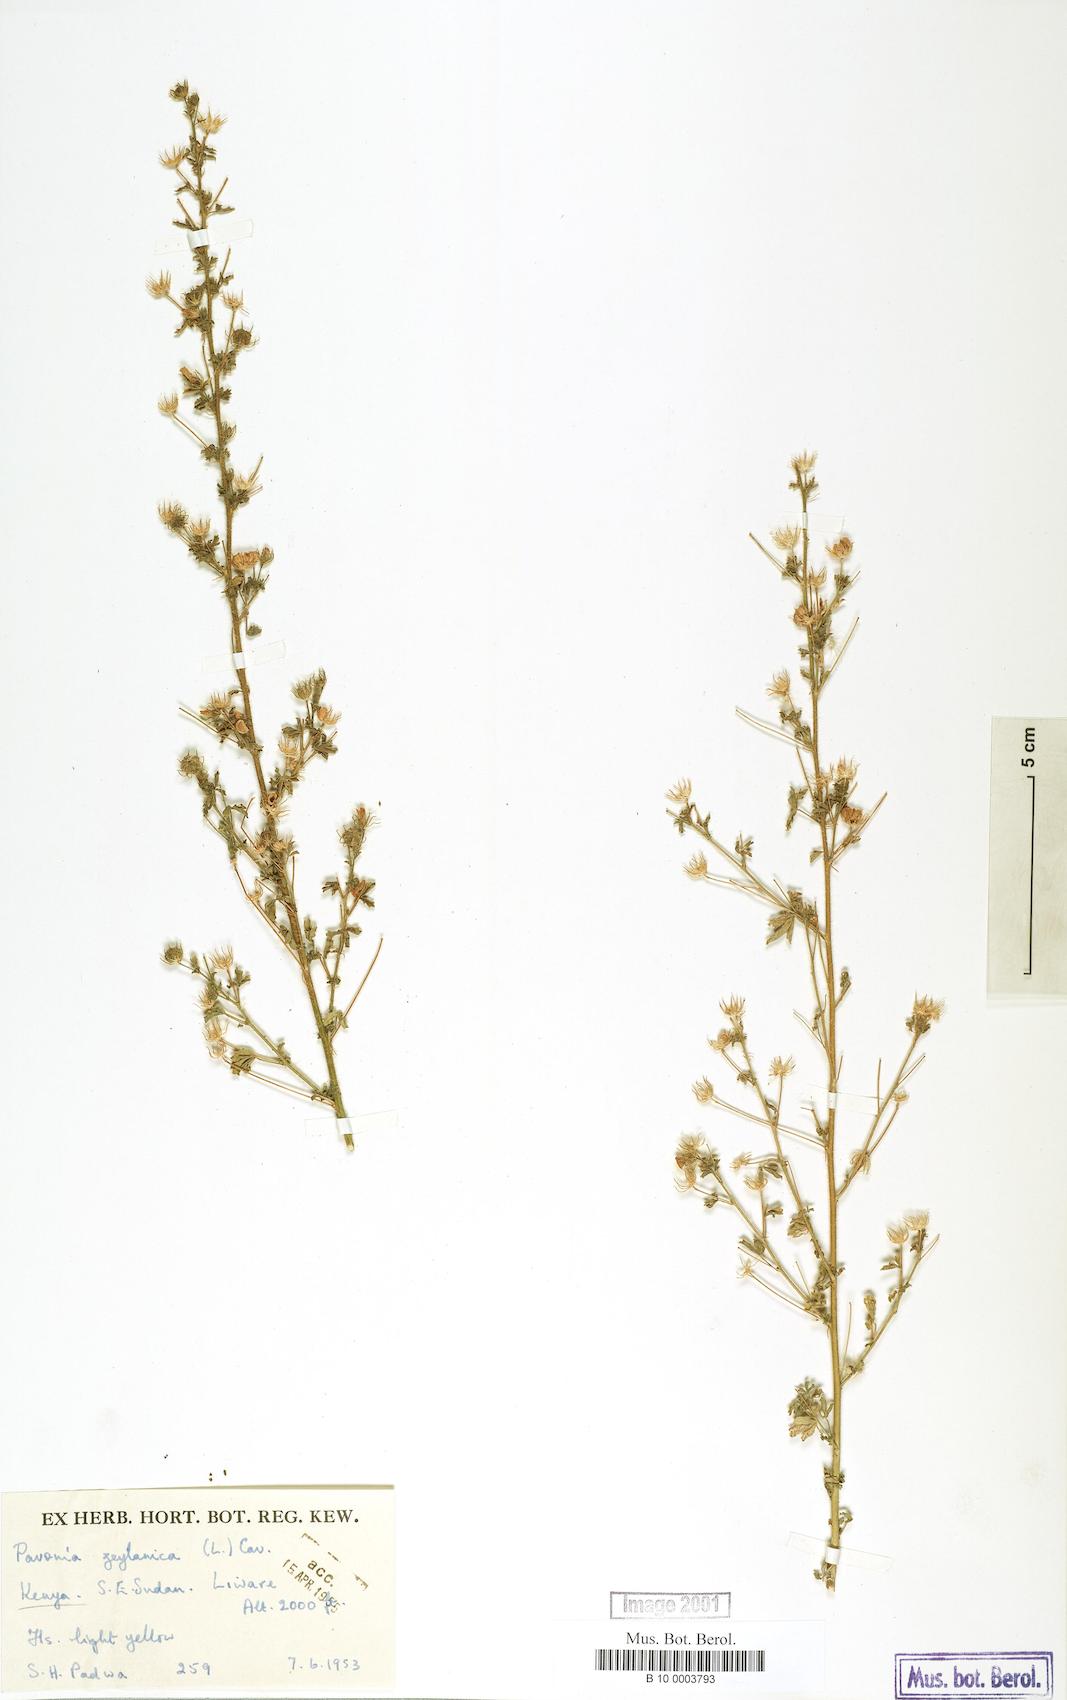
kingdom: Plantae
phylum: Tracheophyta
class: Magnoliopsida
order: Malvales
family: Malvaceae
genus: Pavonia
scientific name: Pavonia zeylanica
